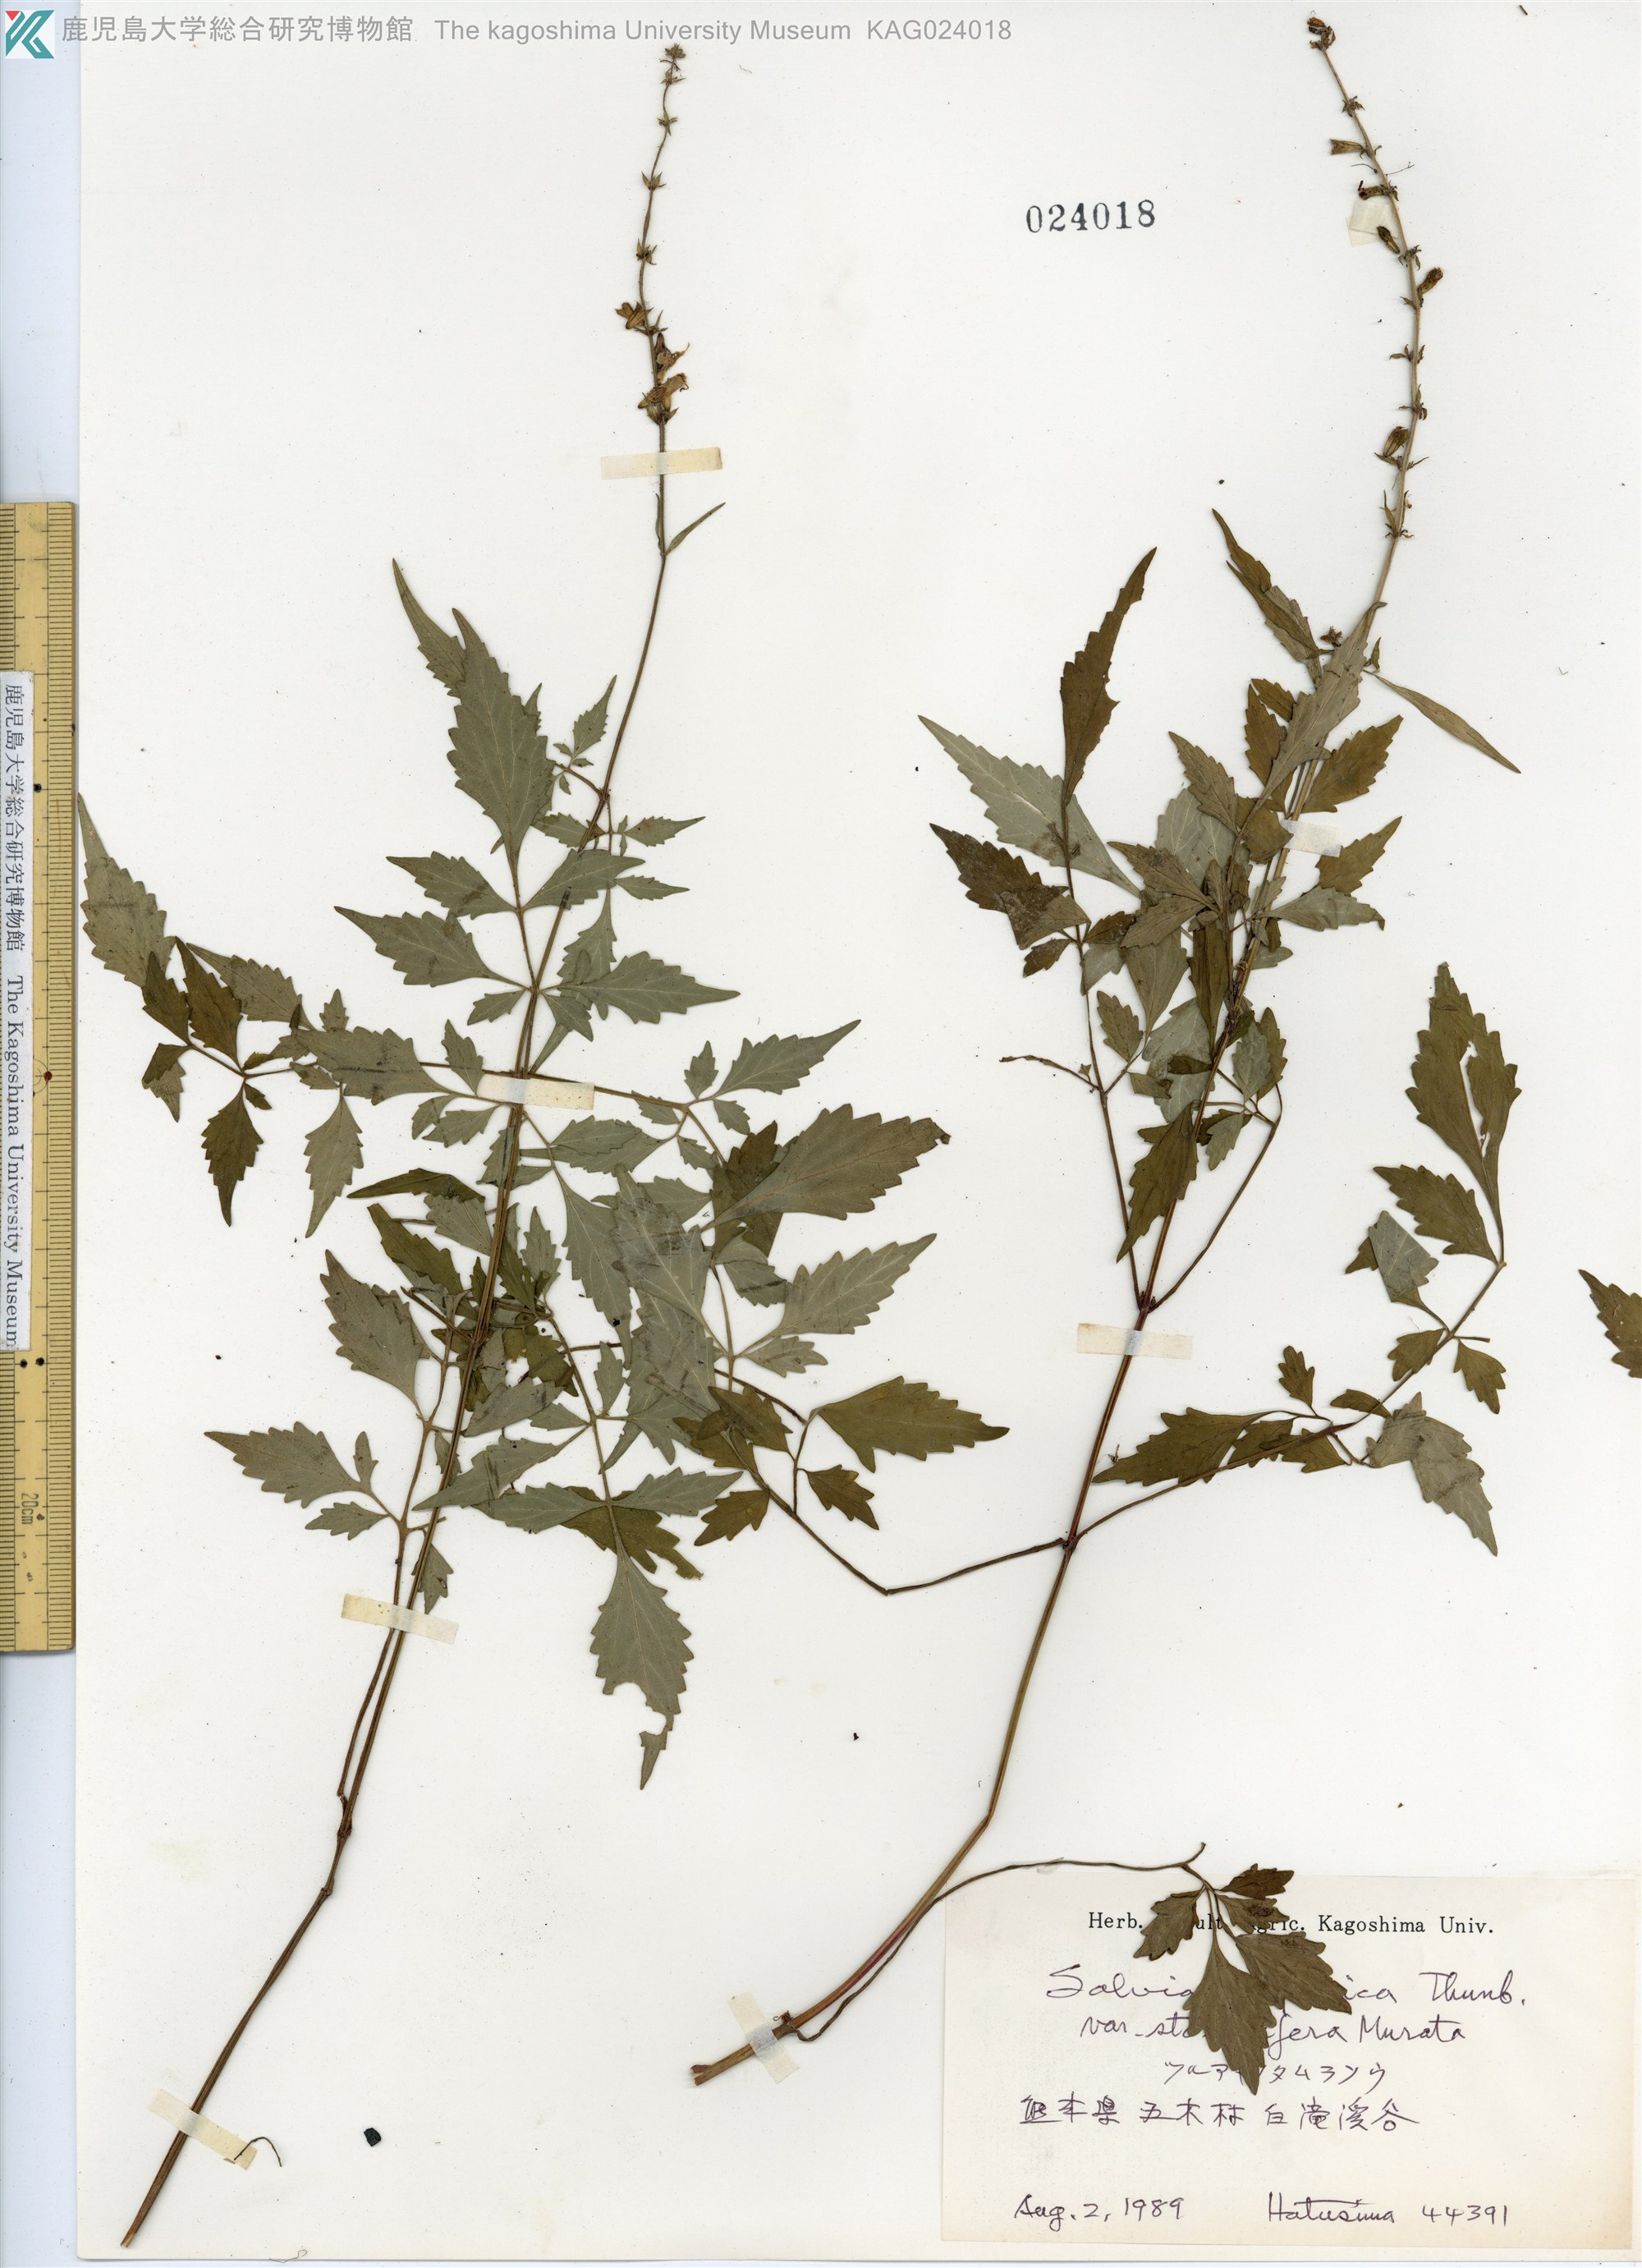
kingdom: Plantae
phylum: Tracheophyta
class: Magnoliopsida
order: Lamiales
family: Lamiaceae
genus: Salvia
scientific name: Salvia japonica
